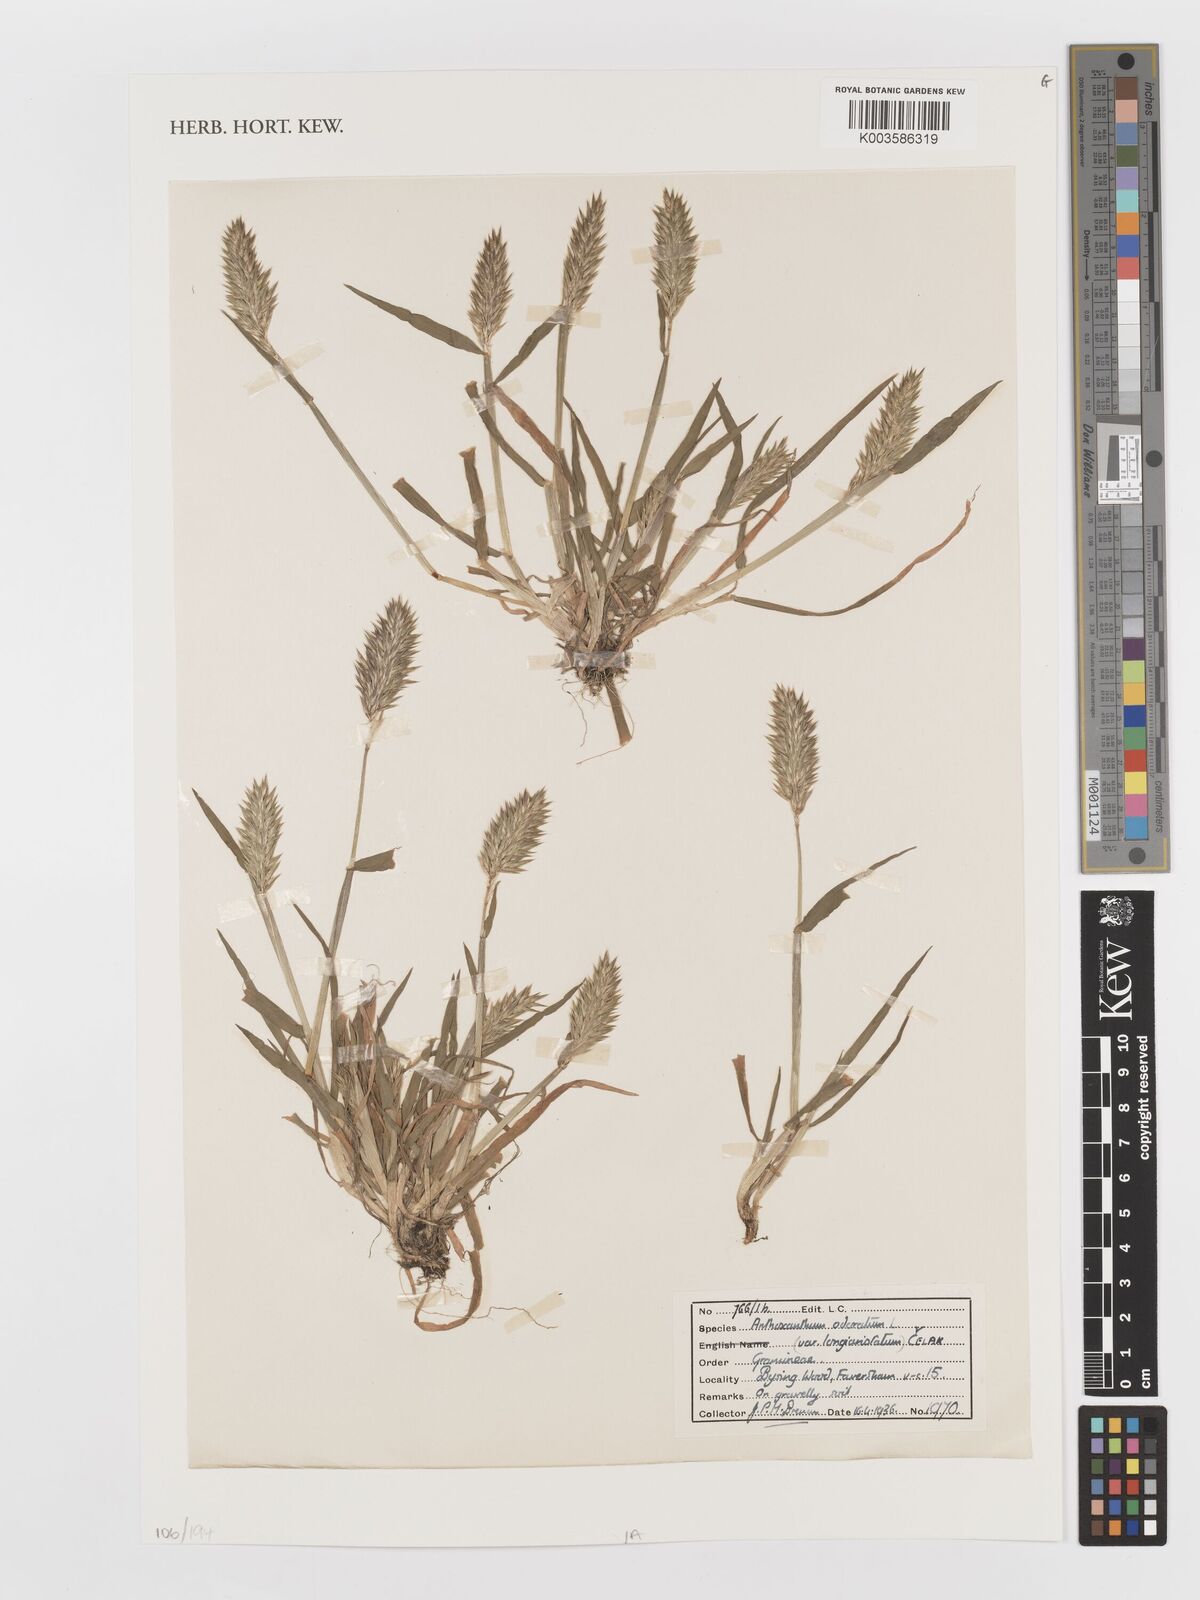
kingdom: Plantae
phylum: Tracheophyta
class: Liliopsida
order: Poales
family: Poaceae
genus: Anthoxanthum
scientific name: Anthoxanthum odoratum
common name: Sweet vernalgrass
